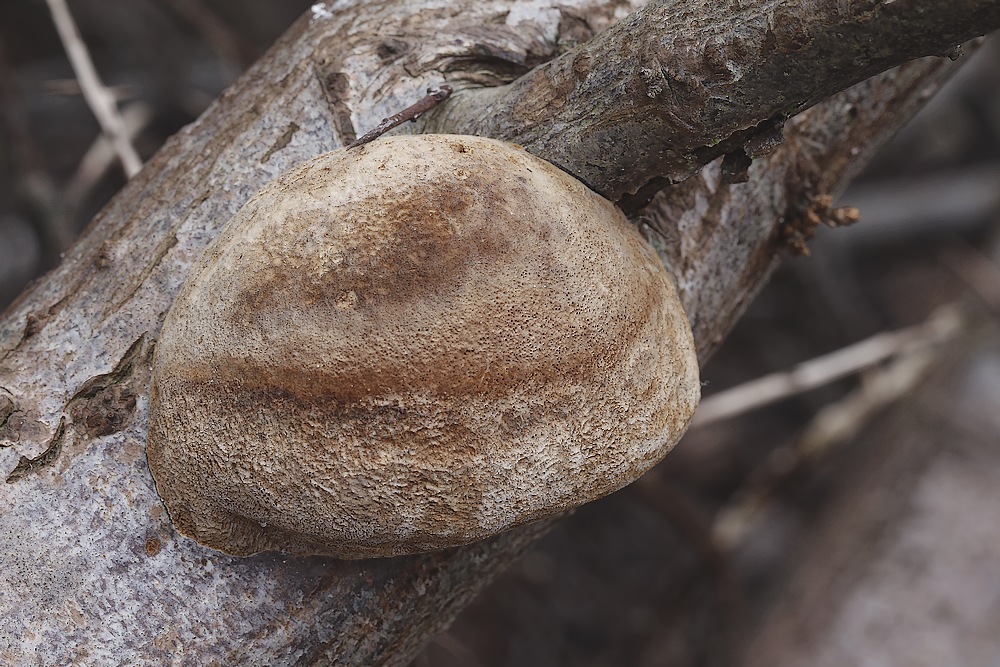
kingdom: Fungi
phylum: Basidiomycota
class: Agaricomycetes
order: Hymenochaetales
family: Hymenochaetaceae
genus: Fomitiporia
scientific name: Fomitiporia hippophaeicola
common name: havtorn-ildporesvamp
